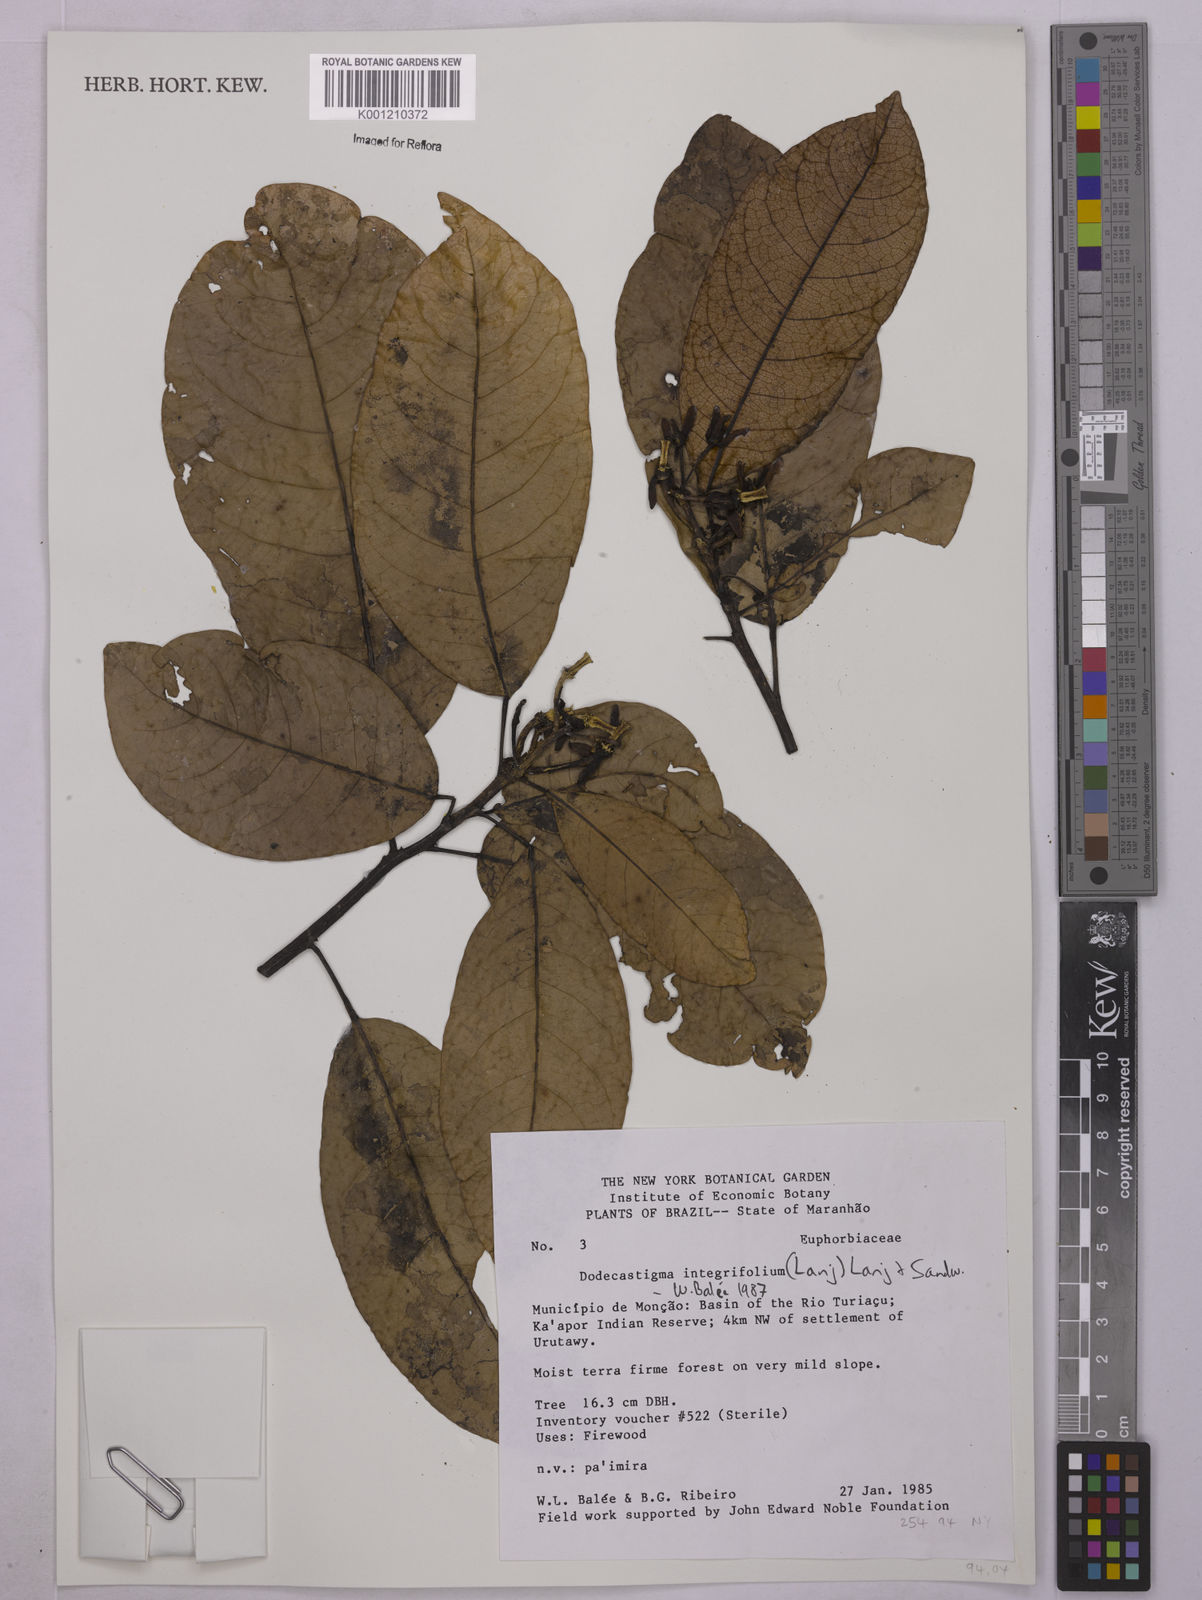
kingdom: Plantae
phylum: Tracheophyta
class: Magnoliopsida
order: Malpighiales
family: Euphorbiaceae
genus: Dodecastigma
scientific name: Dodecastigma integrifolium
